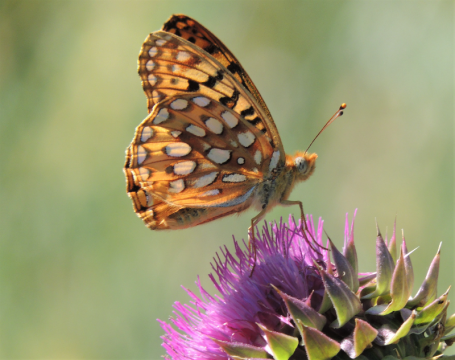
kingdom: Animalia
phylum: Arthropoda
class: Insecta
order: Lepidoptera
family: Nymphalidae
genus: Speyeria
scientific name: Speyeria coronis
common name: Coronis Fritillary
